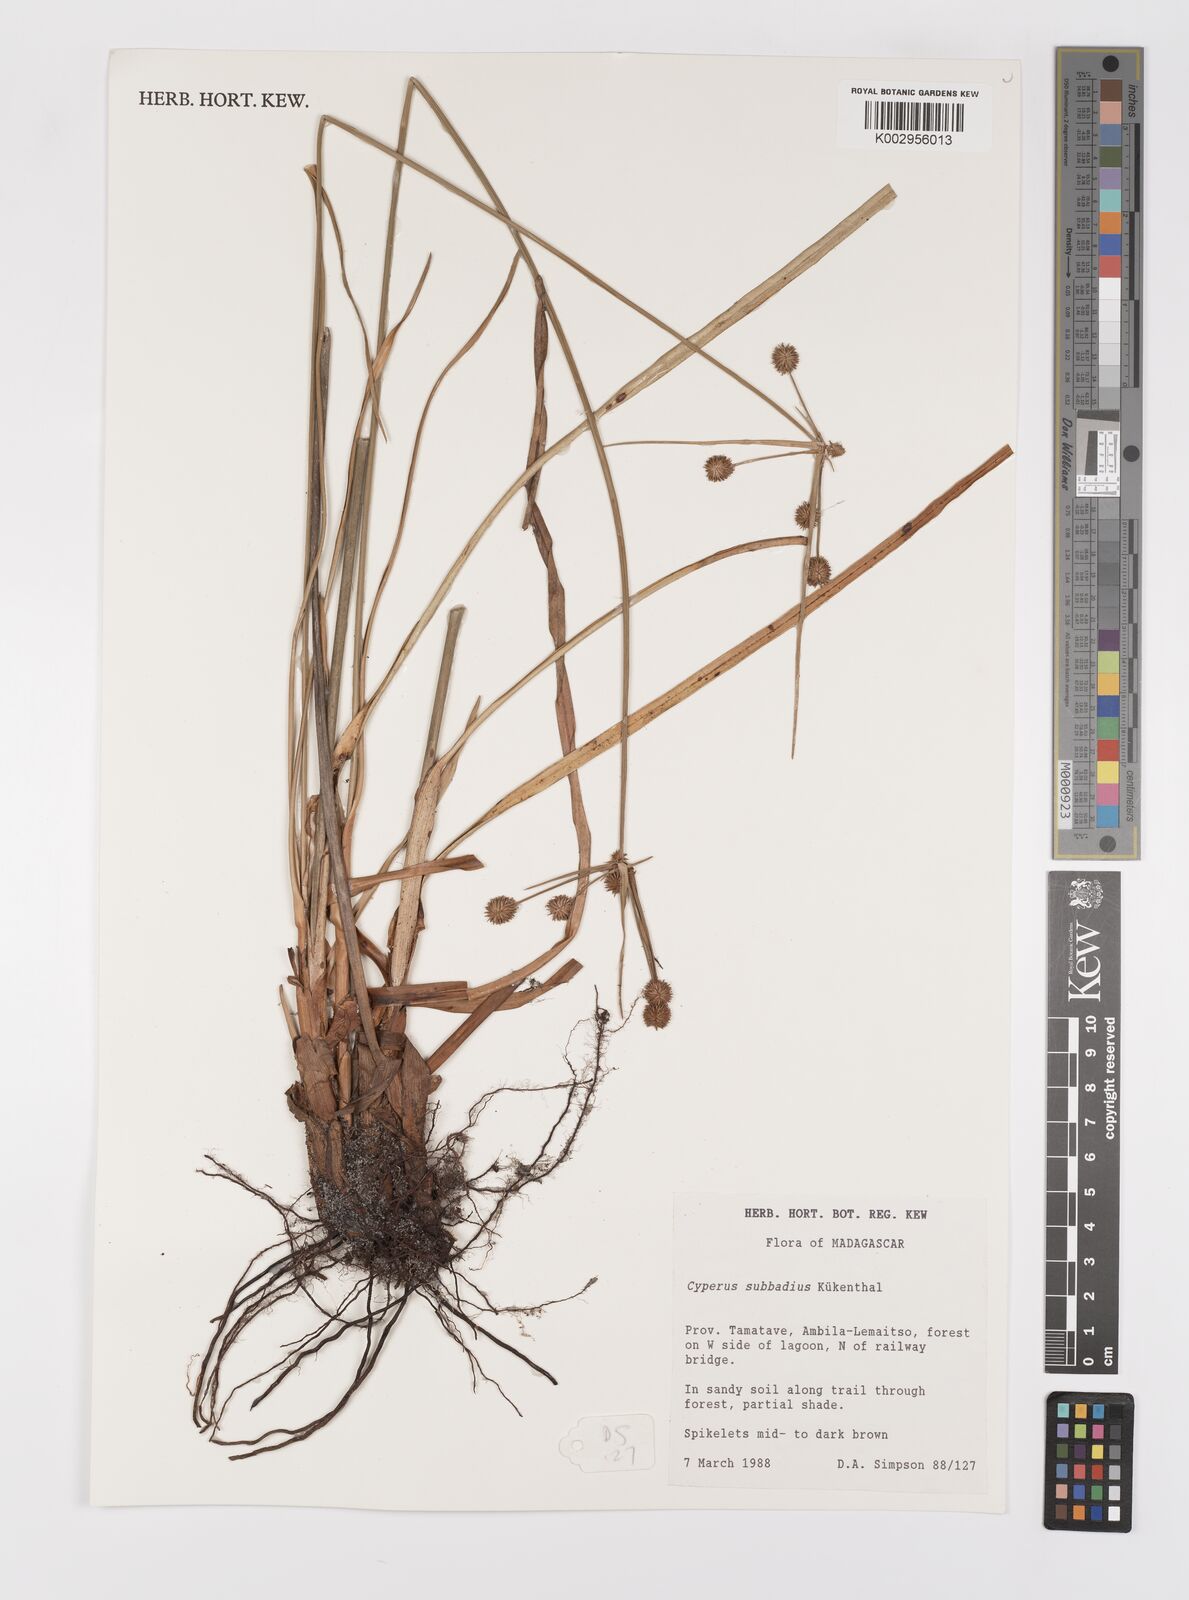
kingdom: Plantae
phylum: Tracheophyta
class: Liliopsida
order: Poales
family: Cyperaceae
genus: Cyperus
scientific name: Cyperus subbadius
